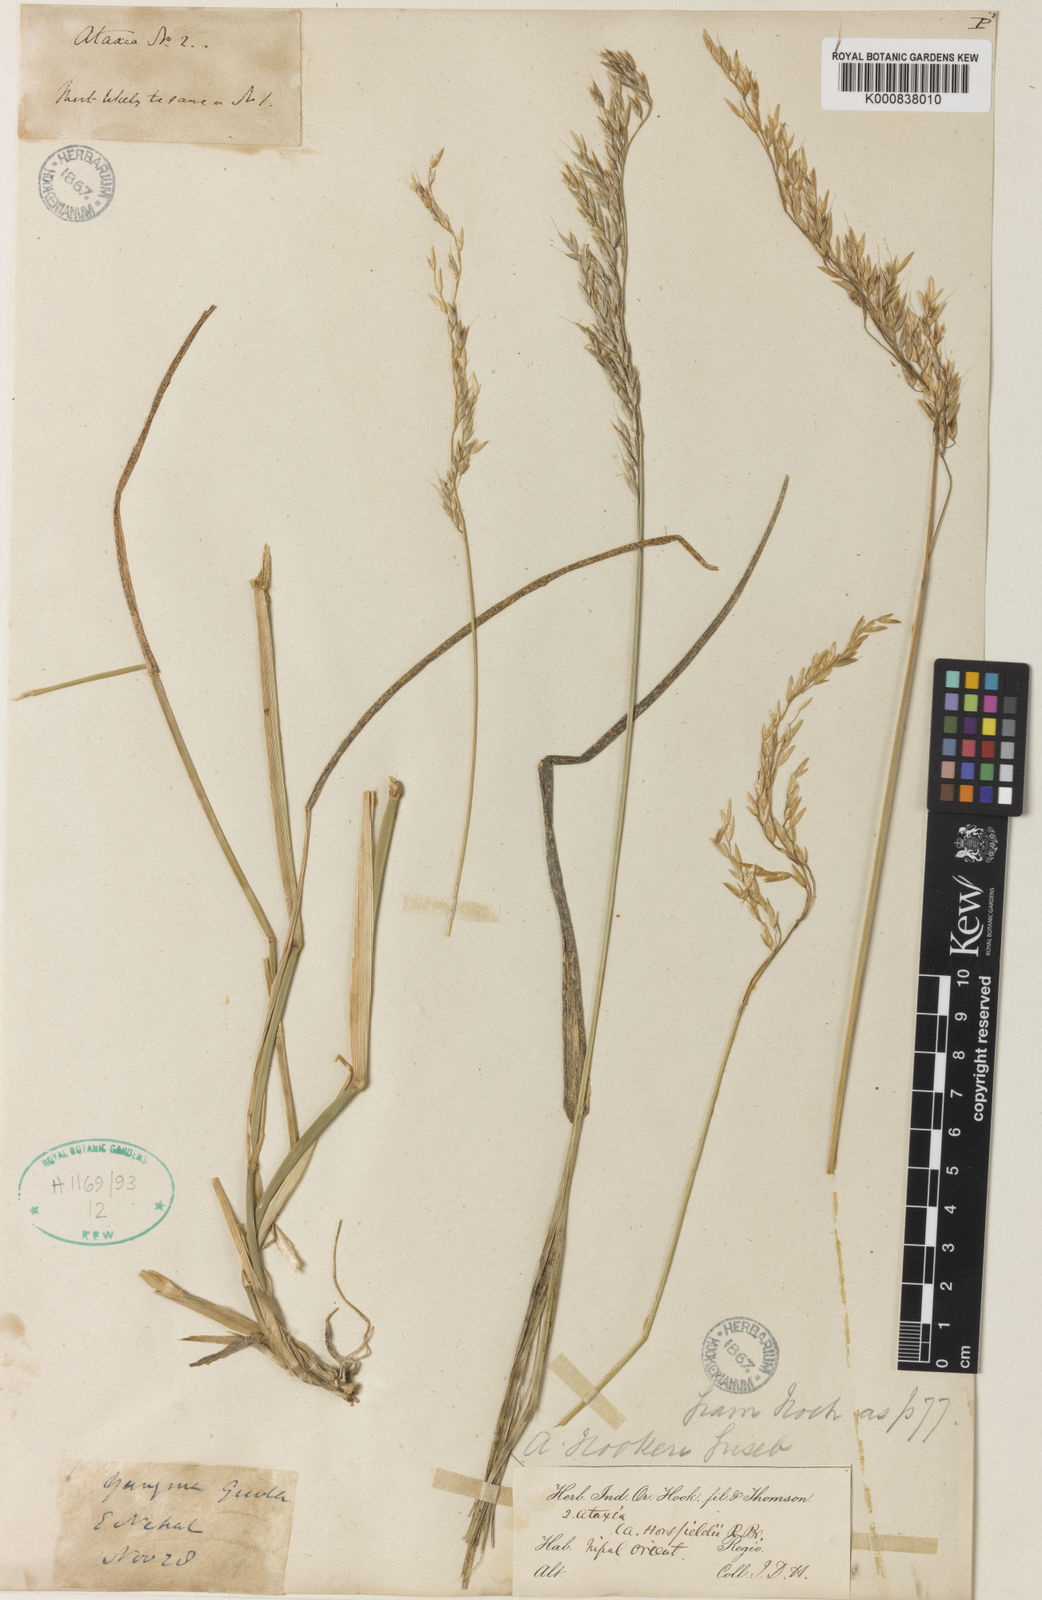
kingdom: Plantae
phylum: Tracheophyta
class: Liliopsida
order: Poales
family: Poaceae
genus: Anthoxanthum
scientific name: Anthoxanthum hookeri
